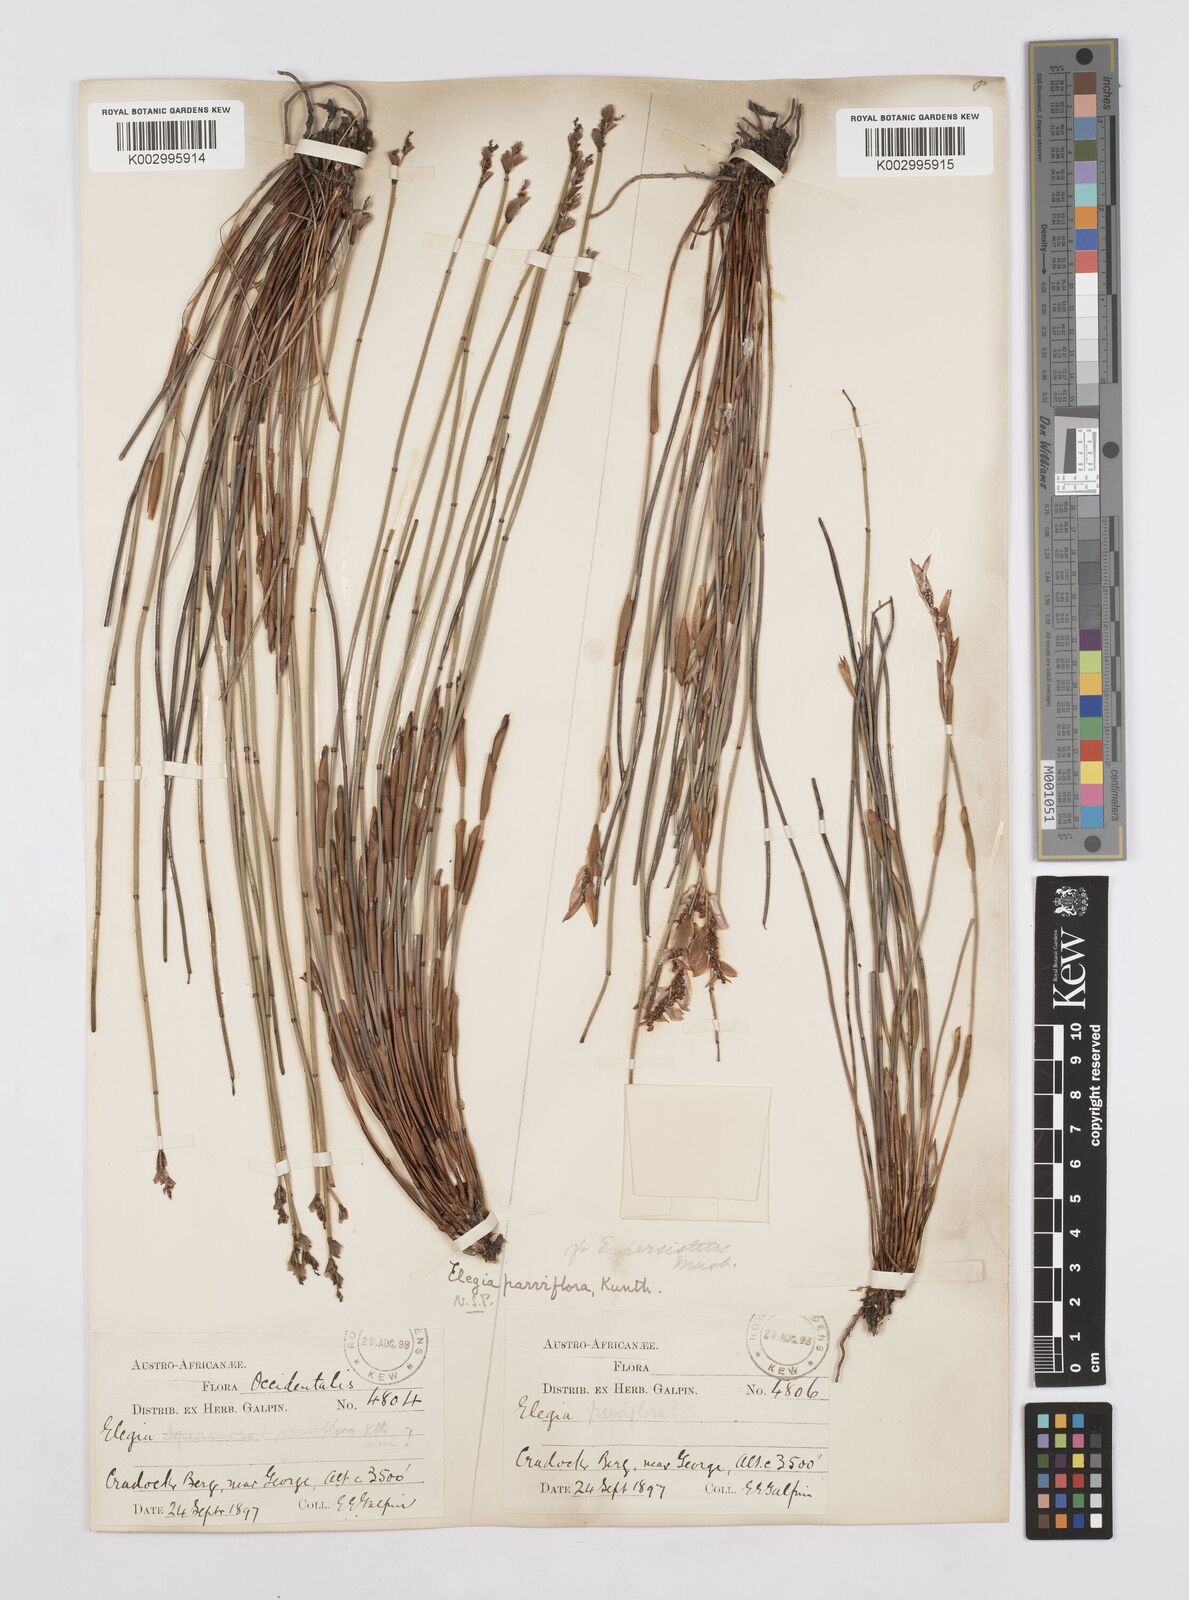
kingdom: Plantae
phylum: Tracheophyta
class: Liliopsida
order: Poales
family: Restionaceae
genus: Cannomois
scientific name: Cannomois parviflora
